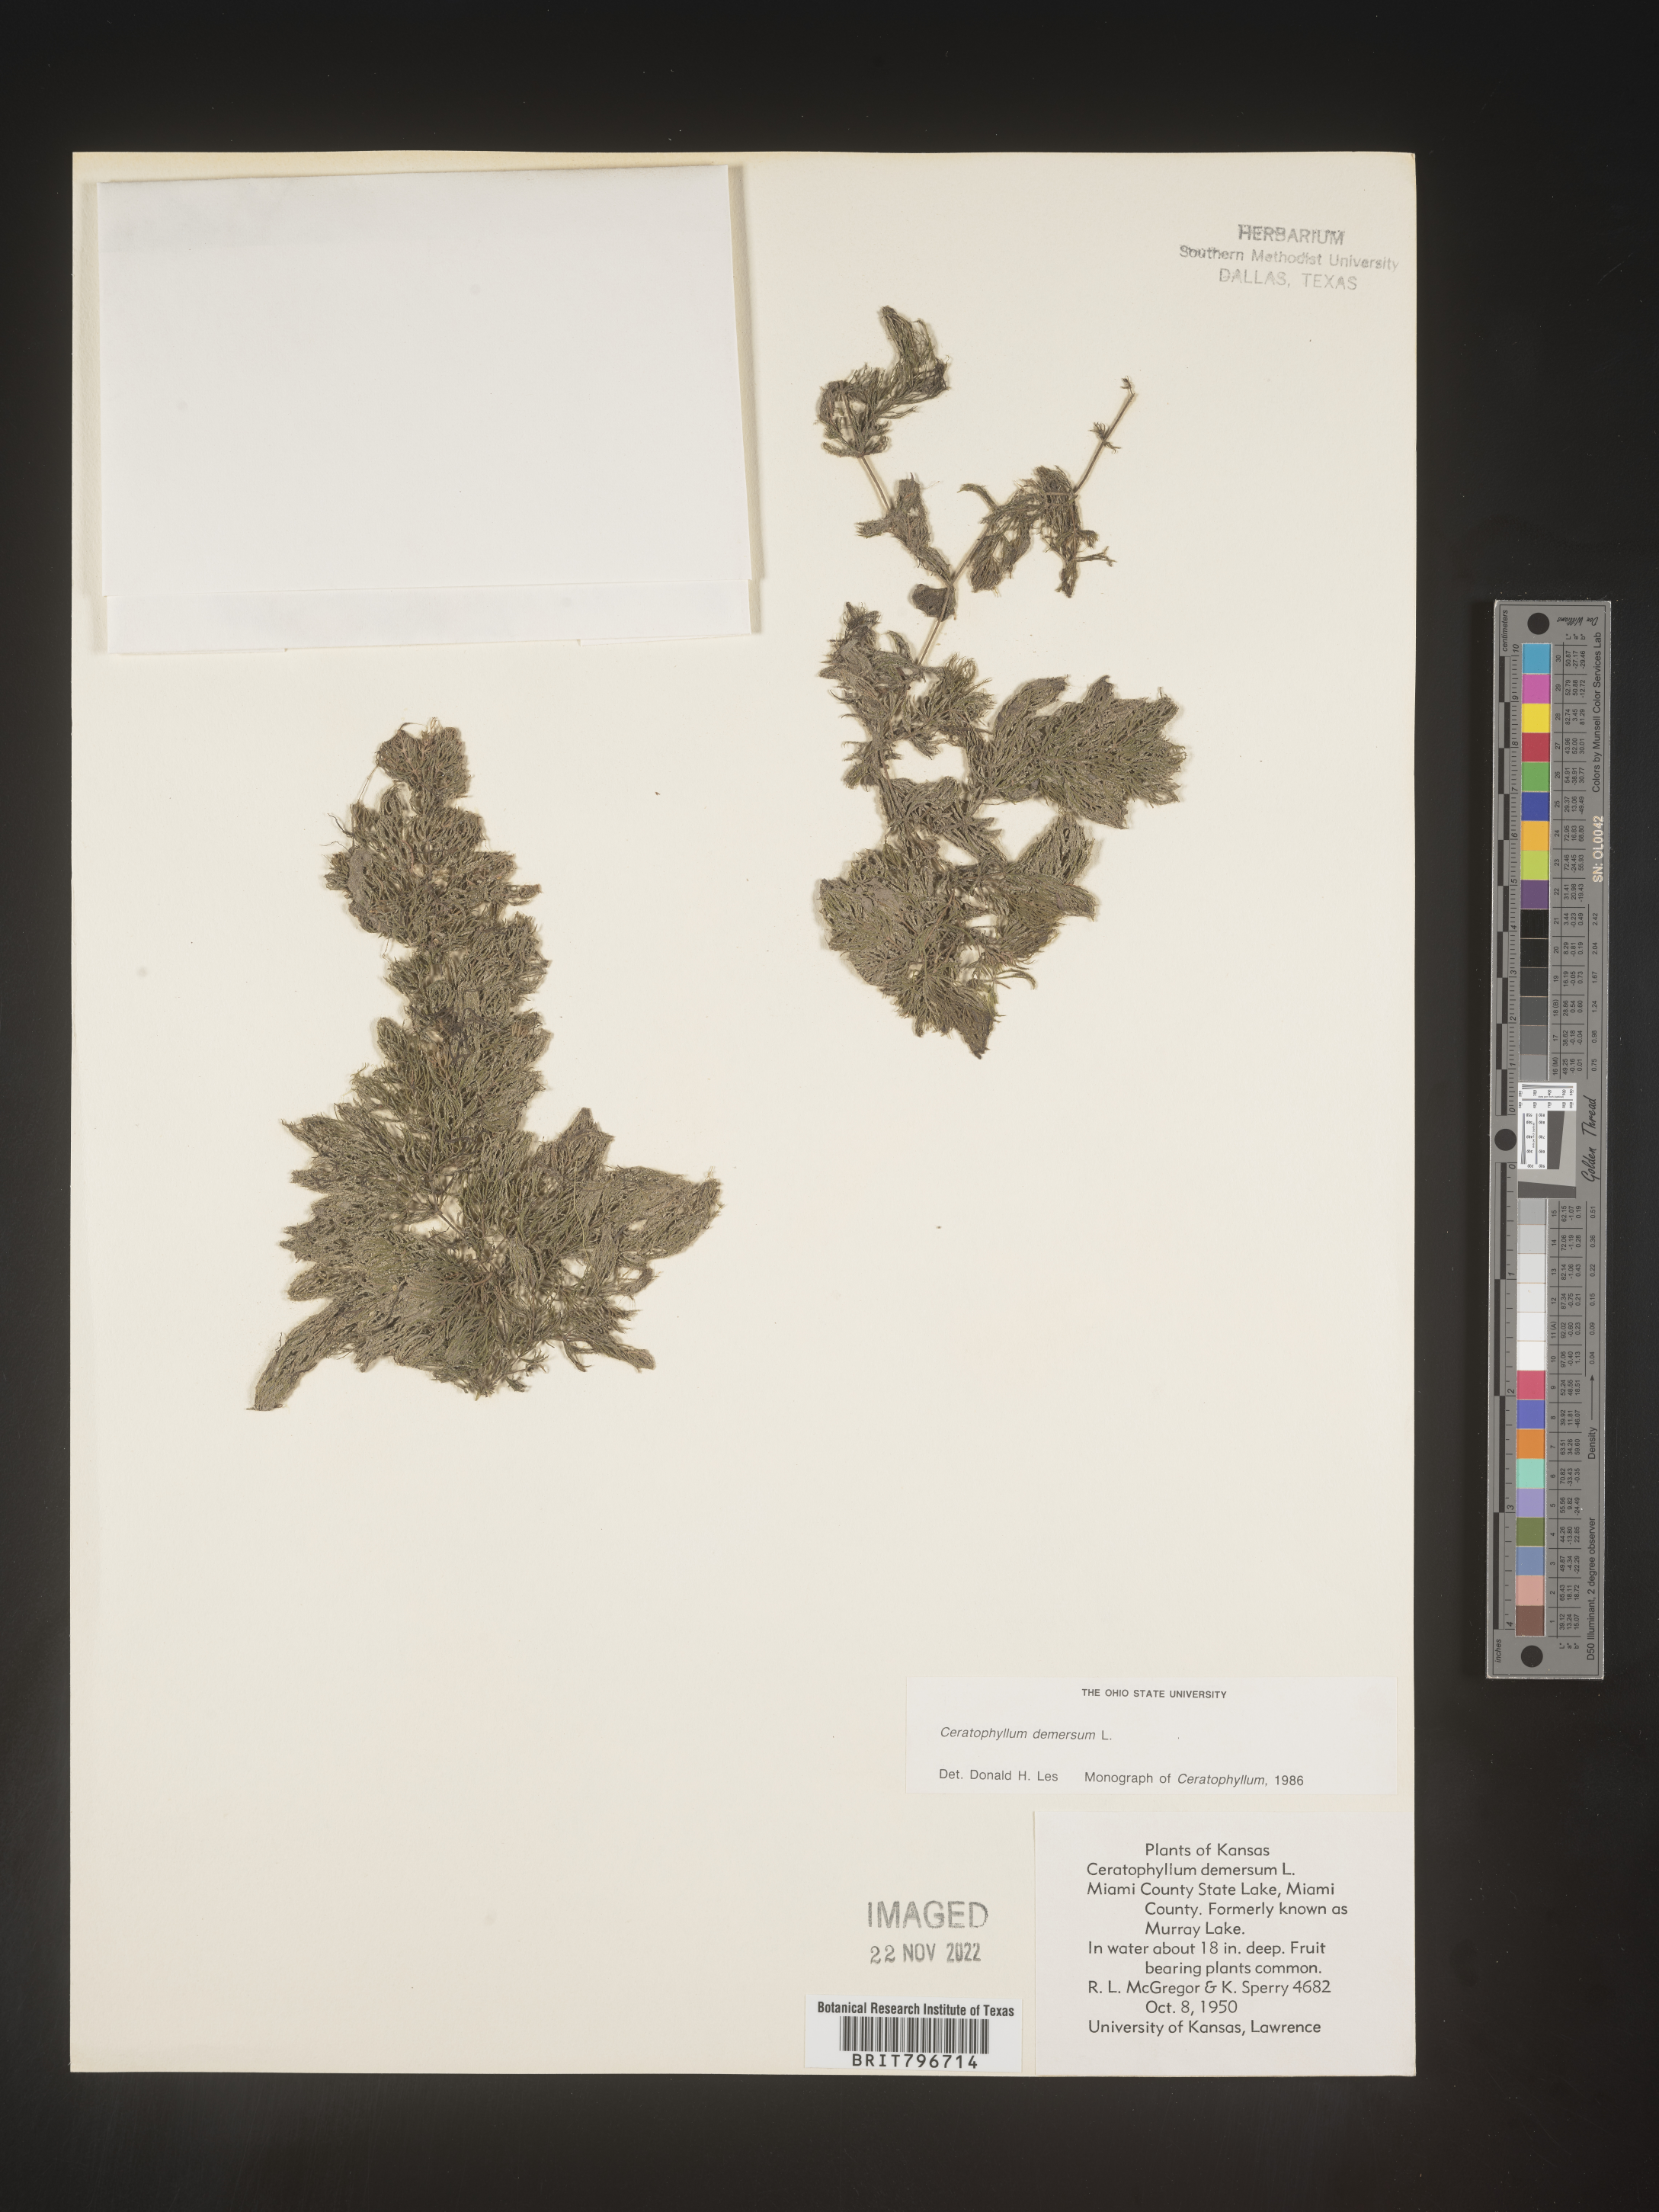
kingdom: Plantae
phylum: Tracheophyta
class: Magnoliopsida
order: Ceratophyllales
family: Ceratophyllaceae
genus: Ceratophyllum
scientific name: Ceratophyllum demersum
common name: Rigid hornwort
